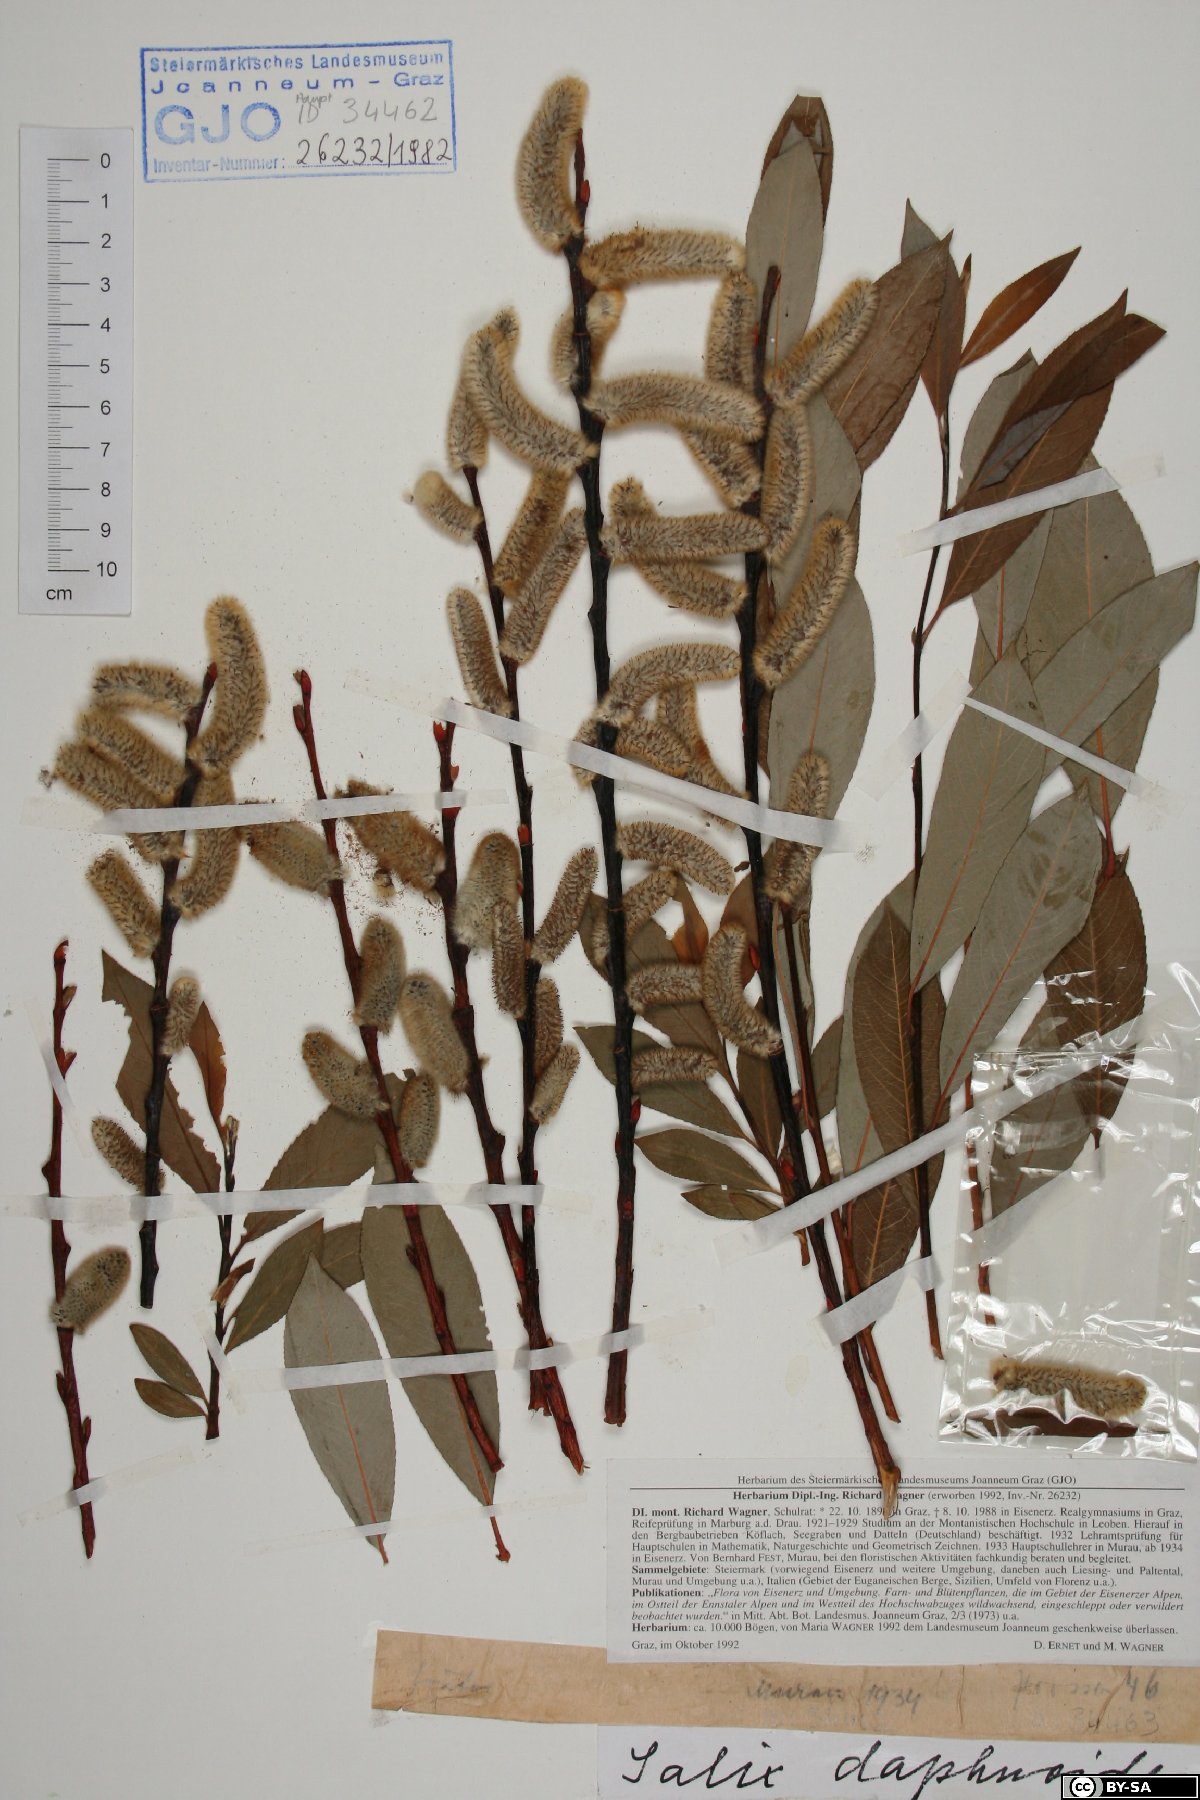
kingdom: Plantae
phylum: Tracheophyta
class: Magnoliopsida
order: Malpighiales
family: Salicaceae
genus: Salix
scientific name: Salix daphnoides
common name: European violet-willow
